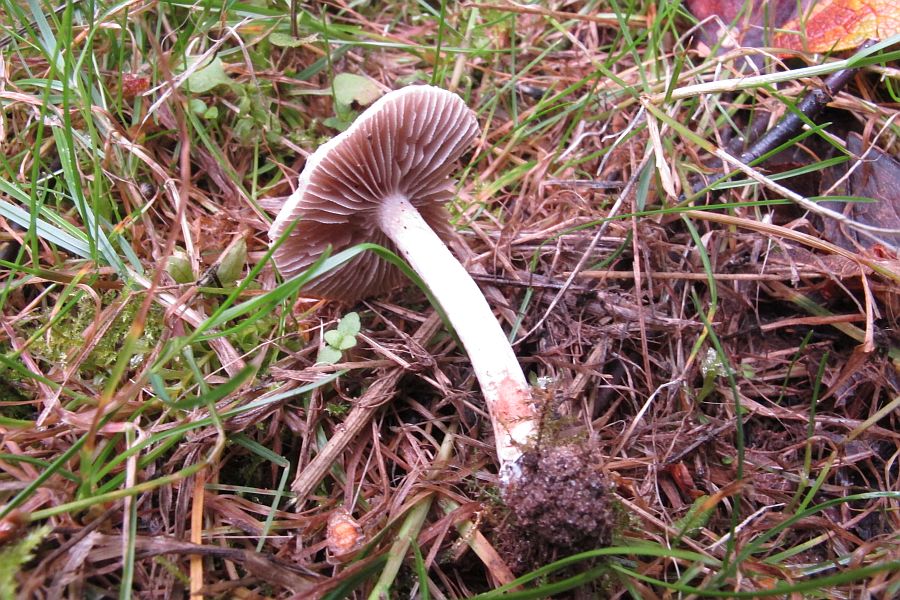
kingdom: Fungi
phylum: Basidiomycota
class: Agaricomycetes
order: Agaricales
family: Inocybaceae
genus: Inocybe
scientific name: Inocybe curvipes
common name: plæne-trævlhat
